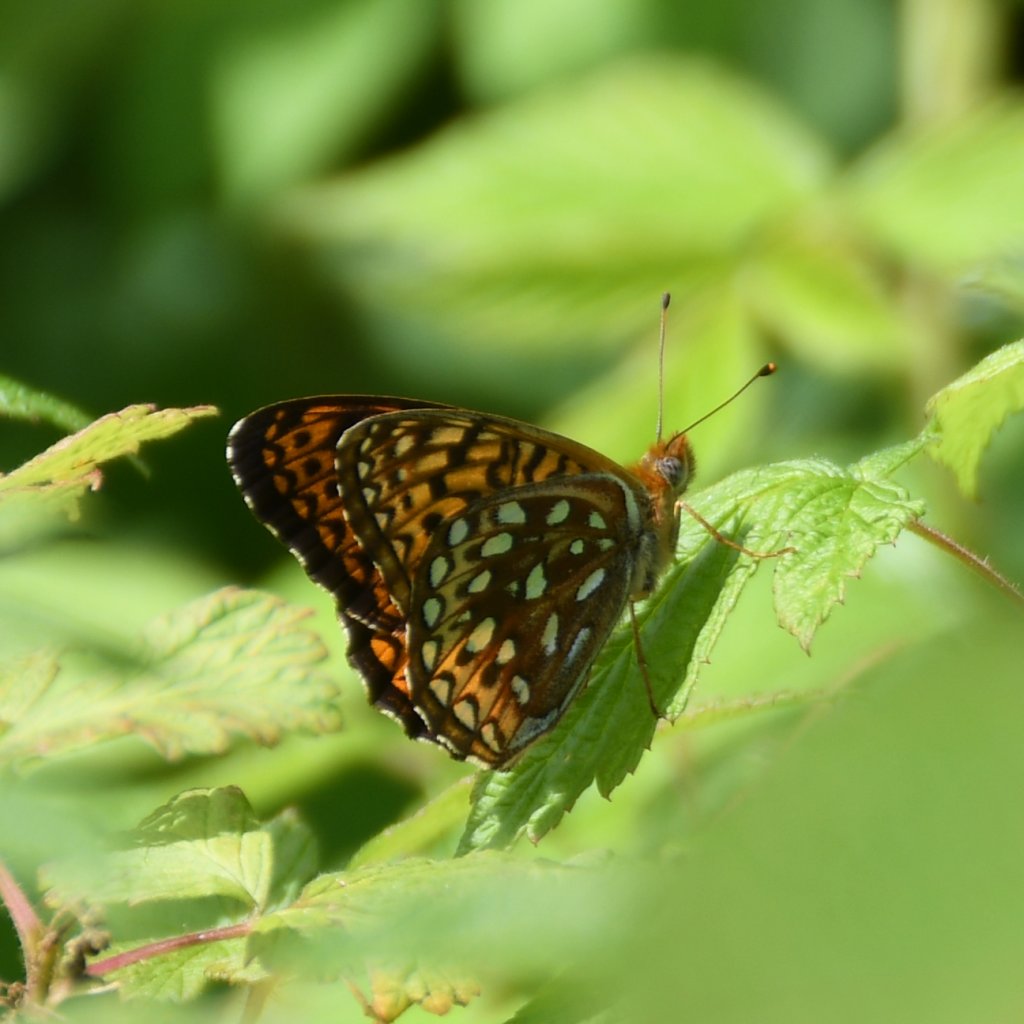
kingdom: Animalia
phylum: Arthropoda
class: Insecta
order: Lepidoptera
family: Nymphalidae
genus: Speyeria
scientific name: Speyeria atlantis
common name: Atlantis Fritillary
